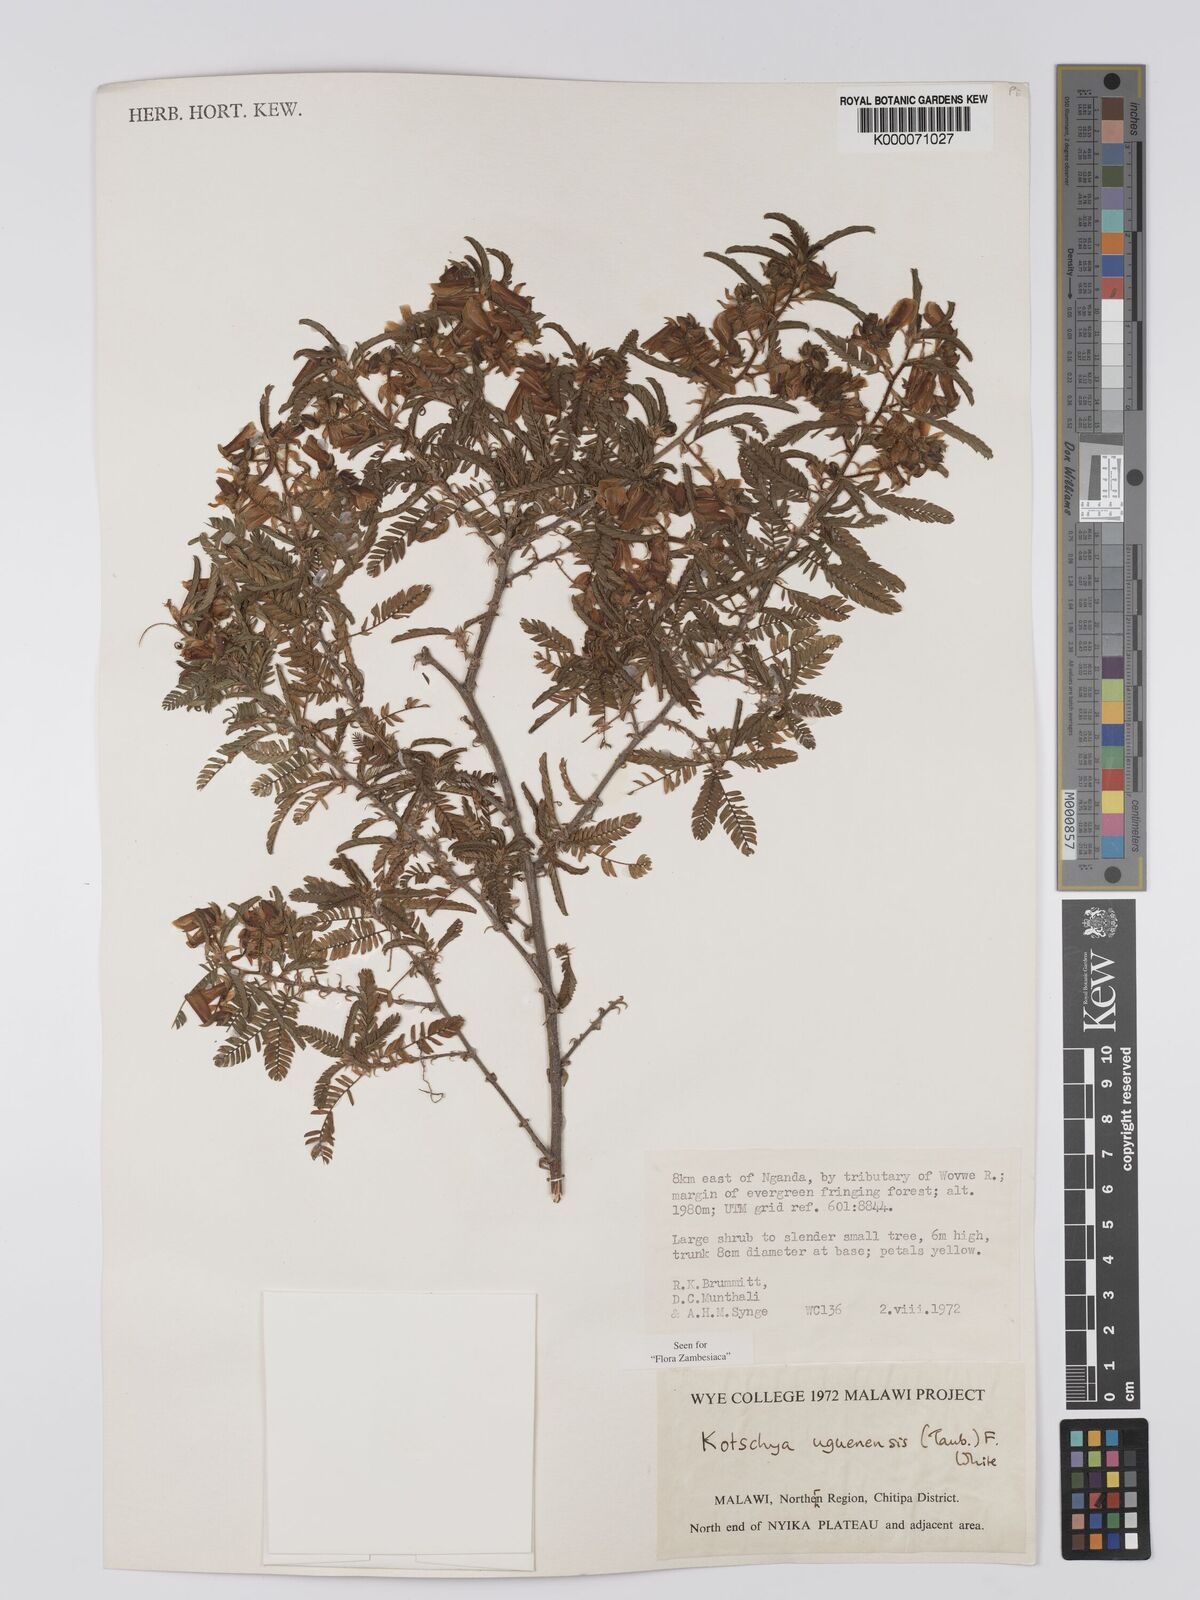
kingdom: Plantae
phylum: Tracheophyta
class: Magnoliopsida
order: Fabales
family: Fabaceae
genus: Kotschya
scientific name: Kotschya uguenensis
